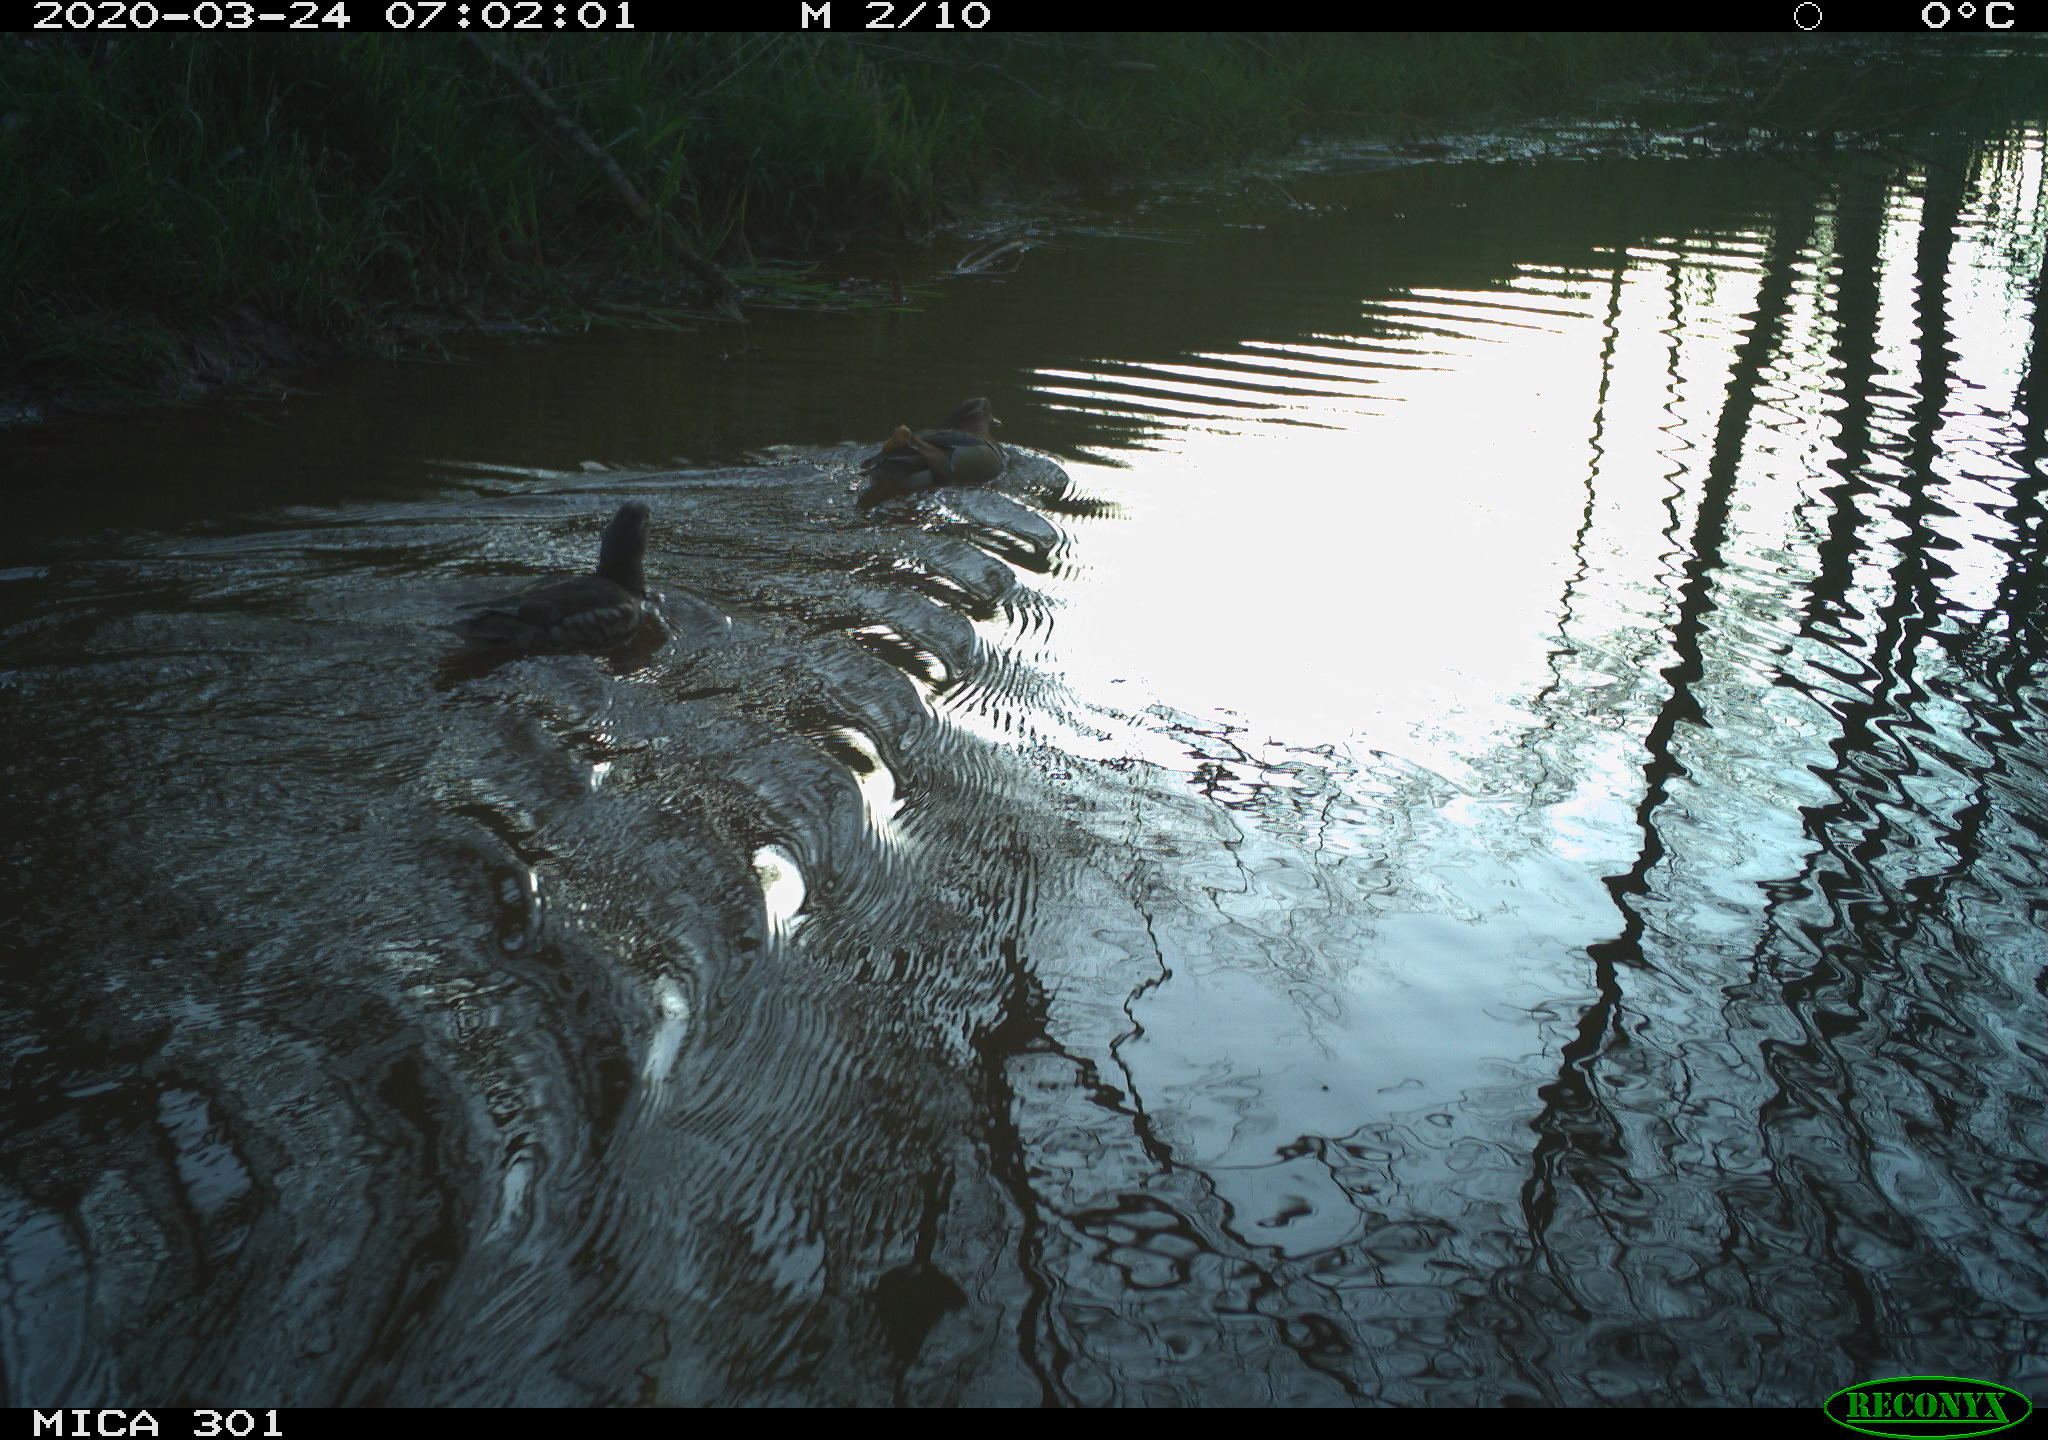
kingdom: Animalia
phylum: Chordata
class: Aves
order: Anseriformes
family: Anatidae
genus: Aix
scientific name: Aix galericulata
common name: Mandarin duck
